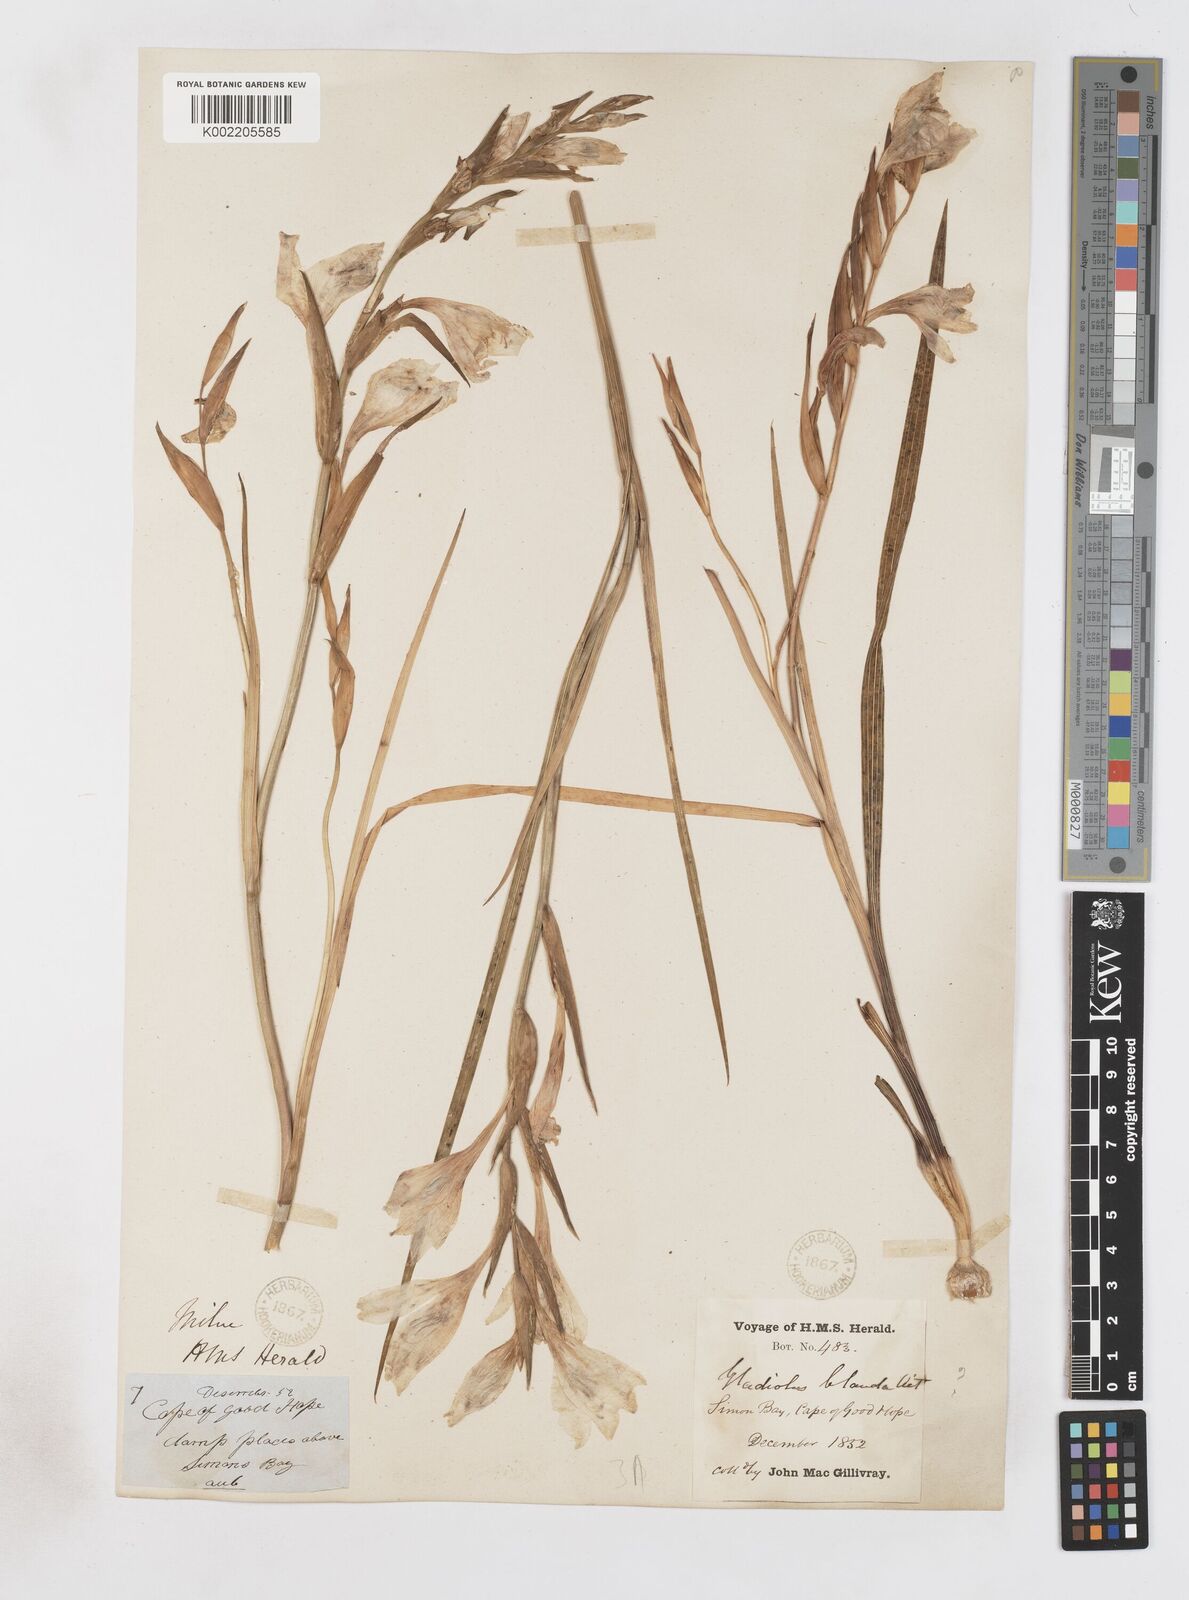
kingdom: Plantae
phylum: Tracheophyta
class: Liliopsida
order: Asparagales
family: Iridaceae
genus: Gladiolus
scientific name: Gladiolus carneus
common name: Painted-lady
